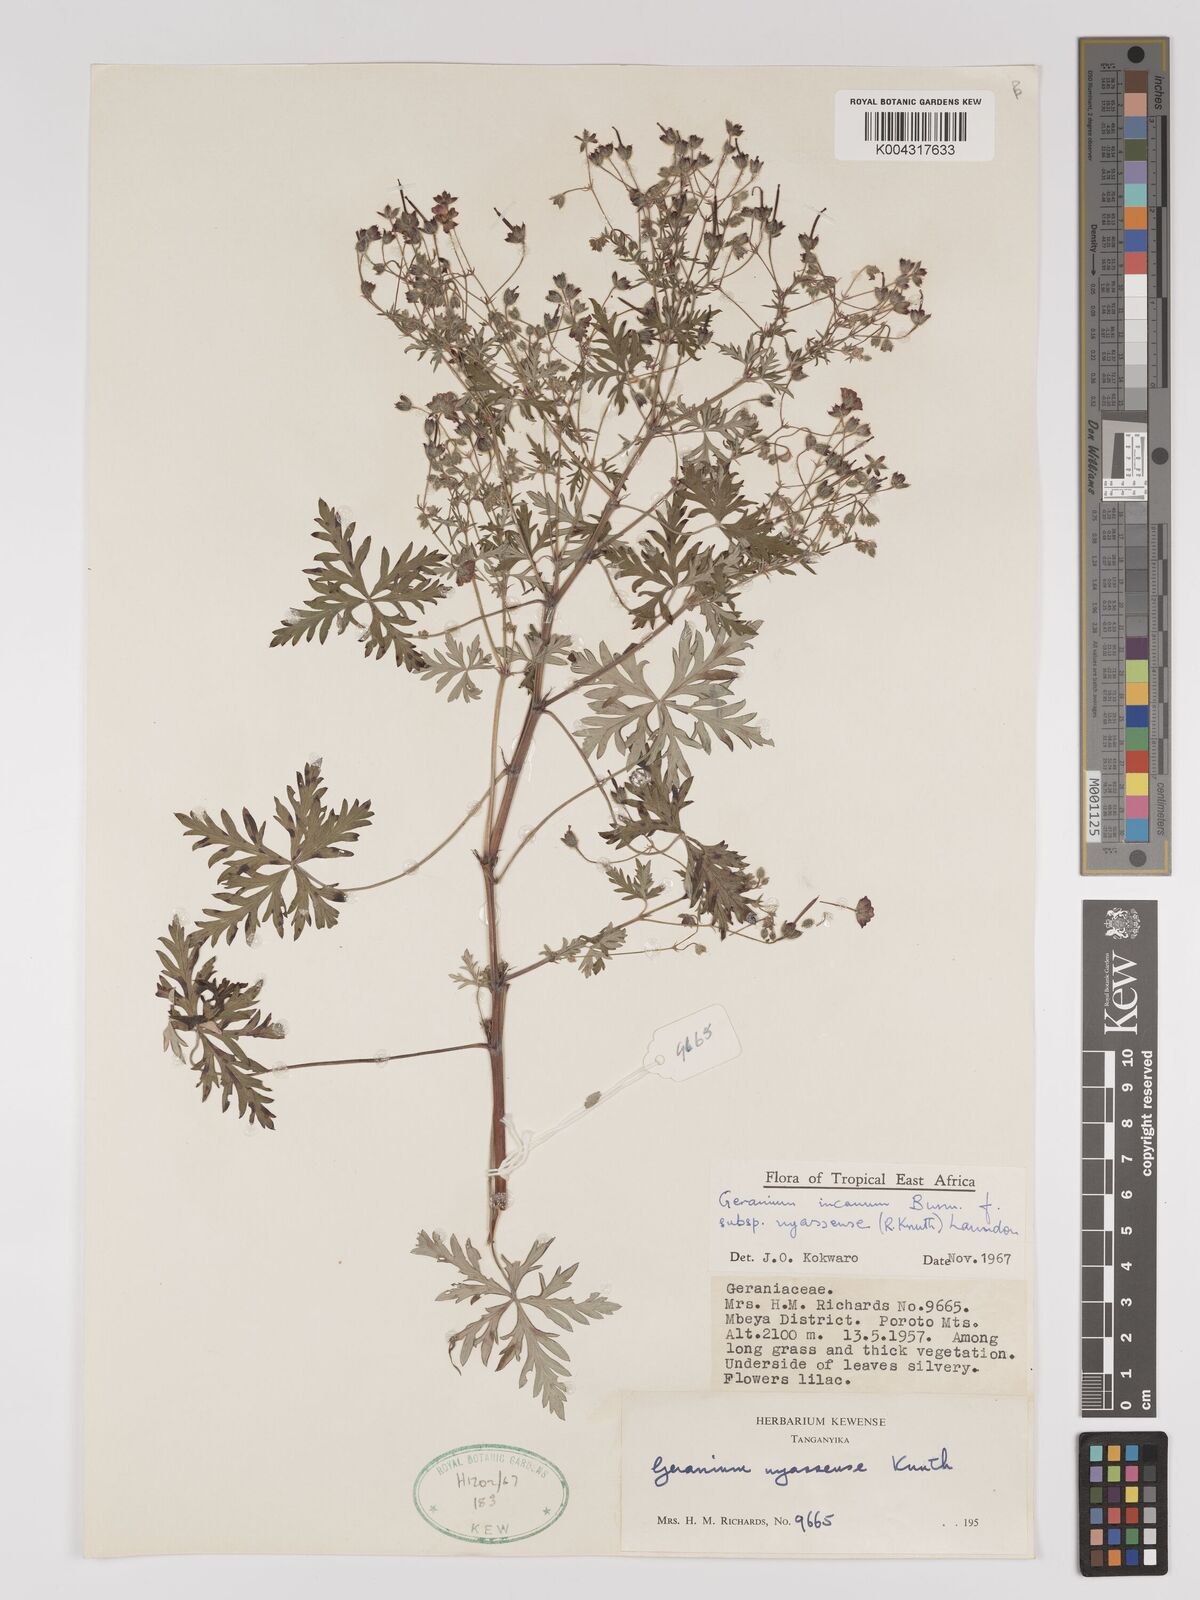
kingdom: Plantae
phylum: Tracheophyta
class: Magnoliopsida
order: Geraniales
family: Geraniaceae
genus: Geranium
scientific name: Geranium incanum
